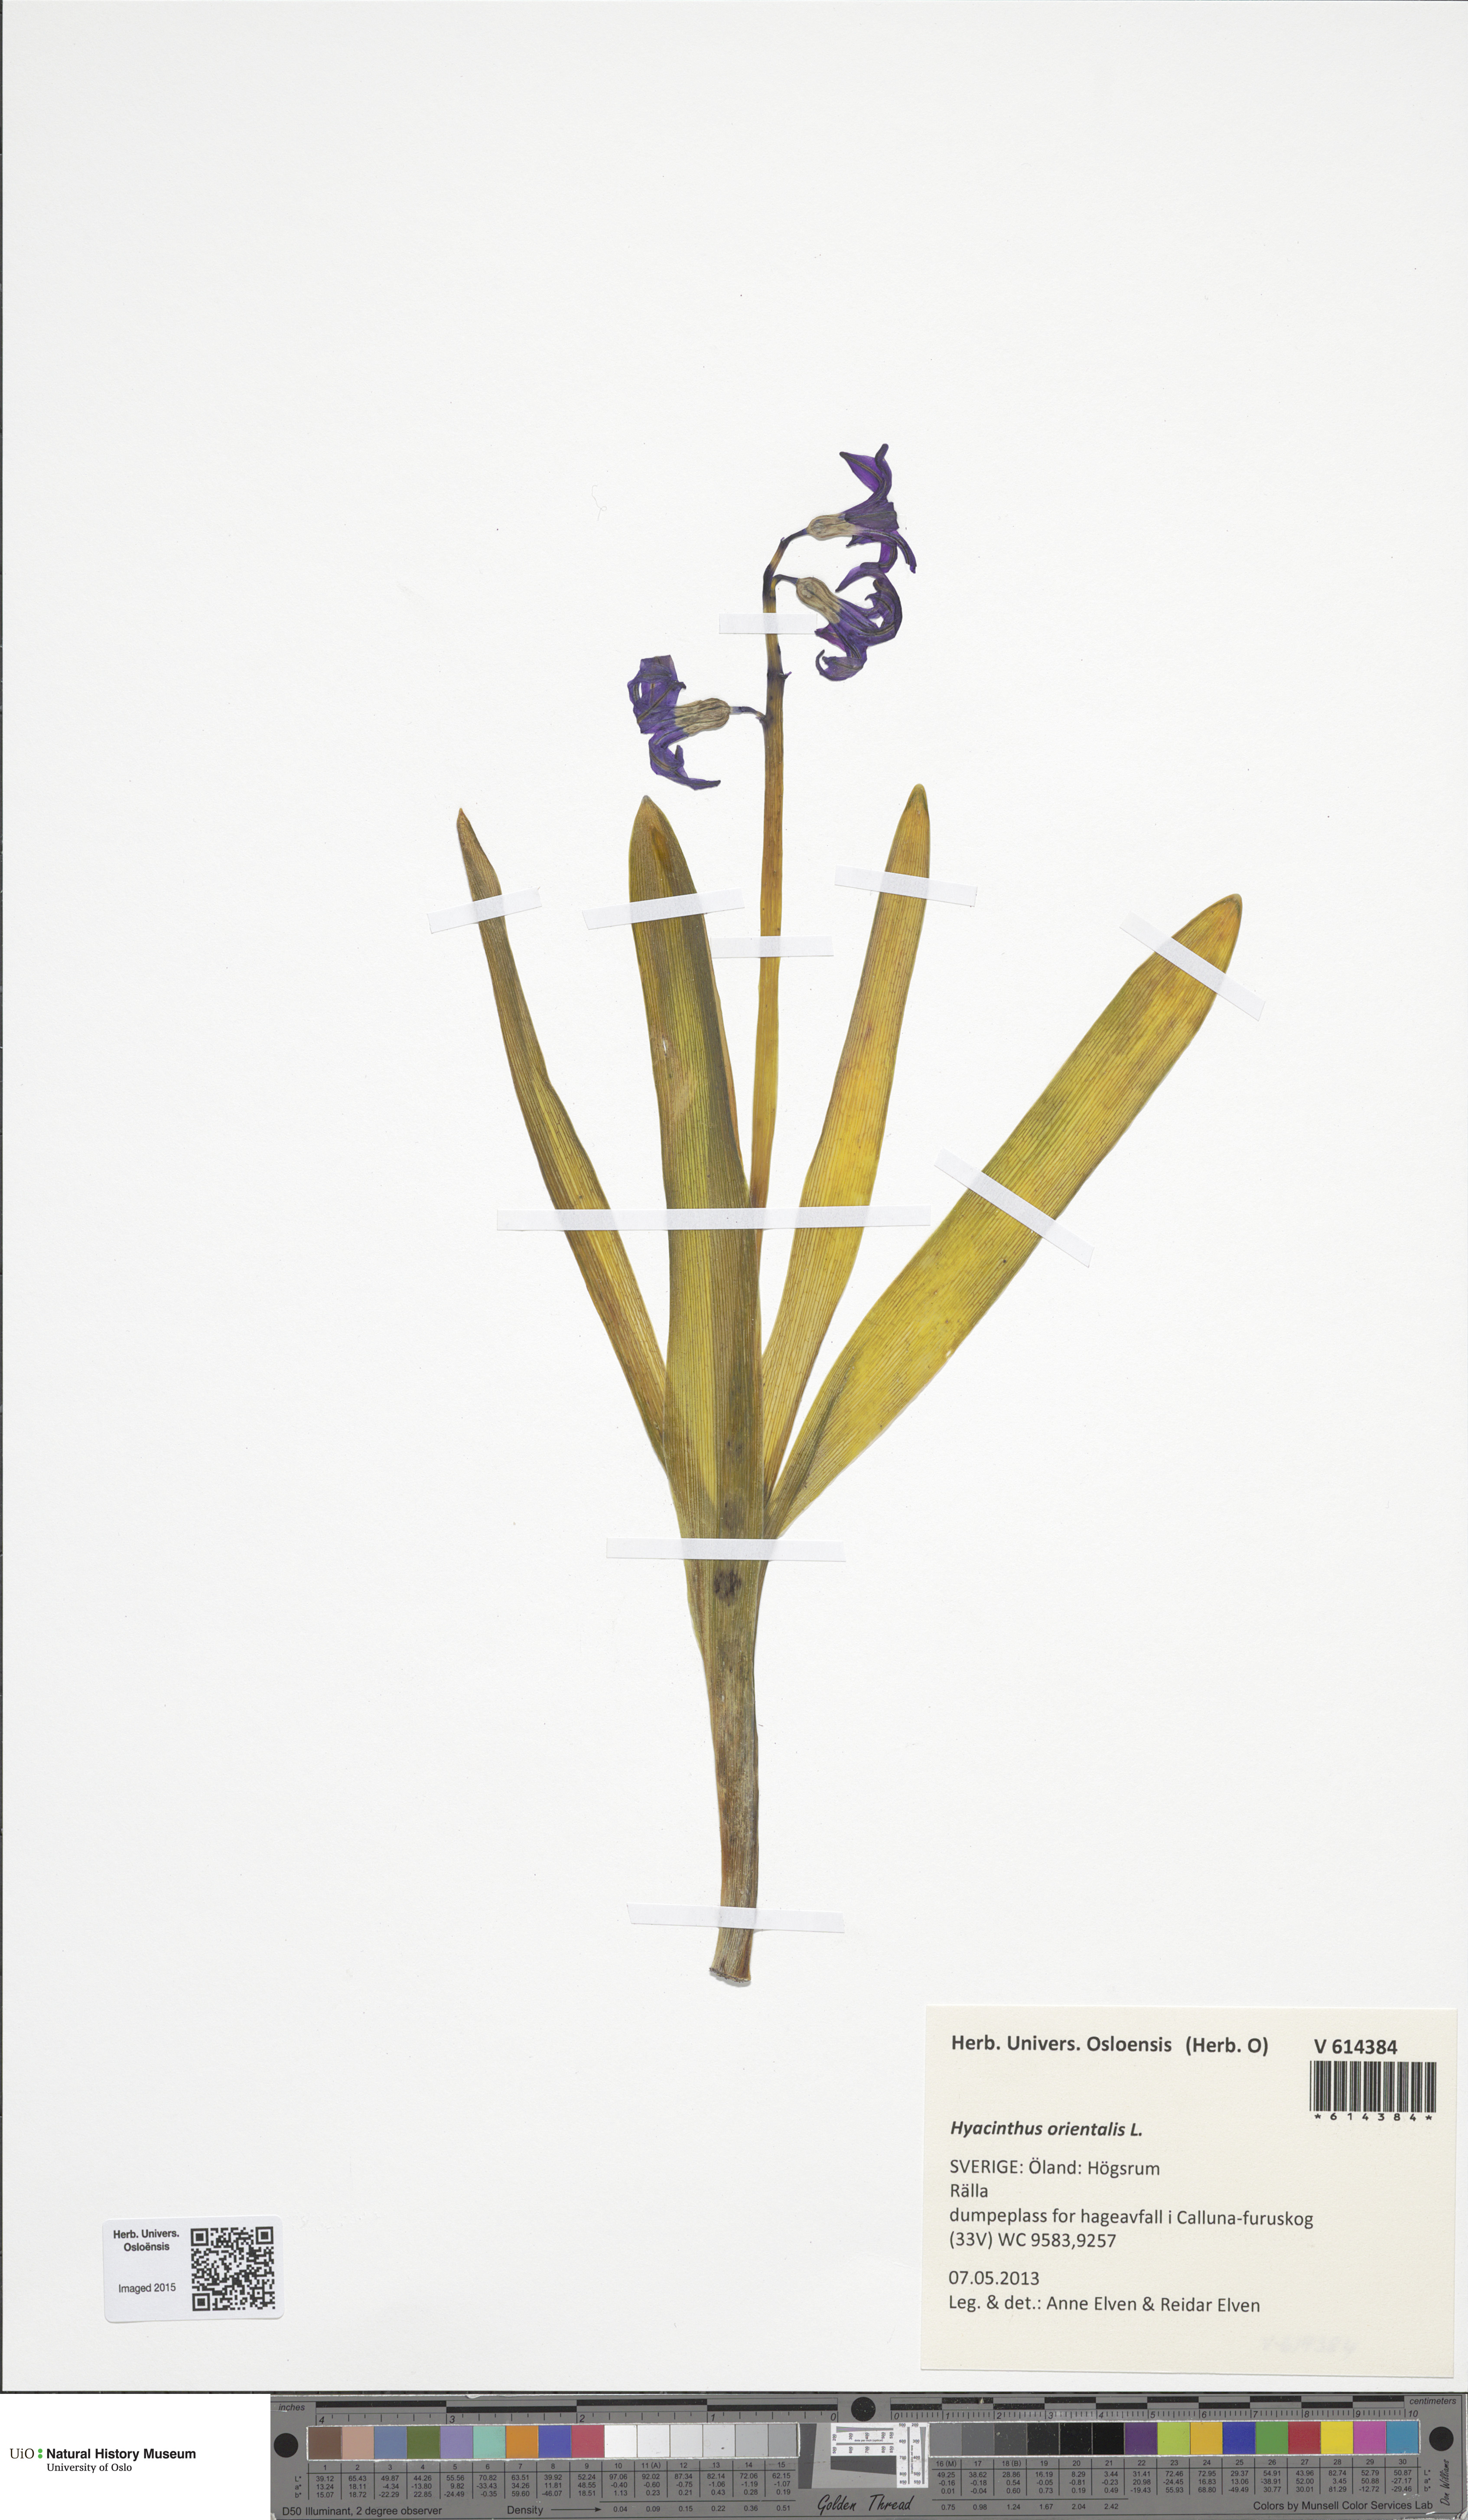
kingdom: Plantae
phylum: Tracheophyta
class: Liliopsida
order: Asparagales
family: Asparagaceae
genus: Hyacinthus
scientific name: Hyacinthus orientalis
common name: Hyacinth
